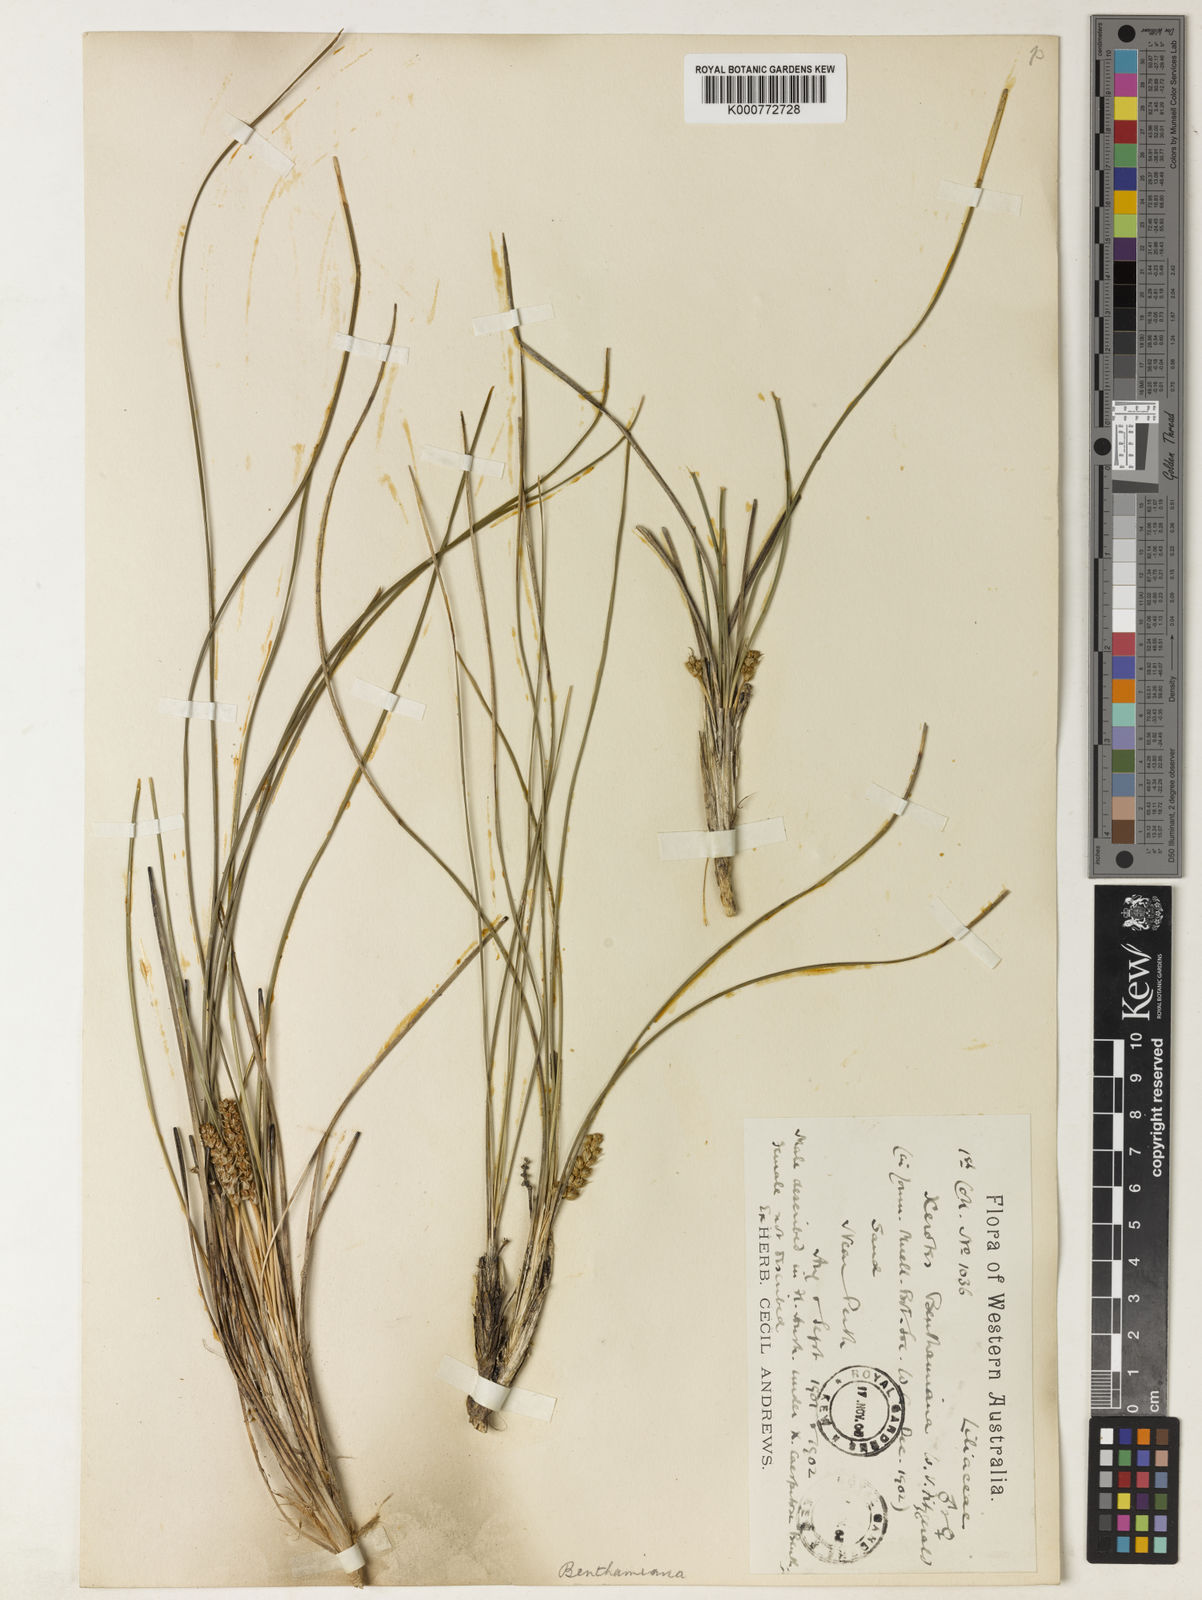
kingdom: Plantae
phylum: Tracheophyta
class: Liliopsida
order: Asparagales
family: Asparagaceae
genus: Lomandra
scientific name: Lomandra
